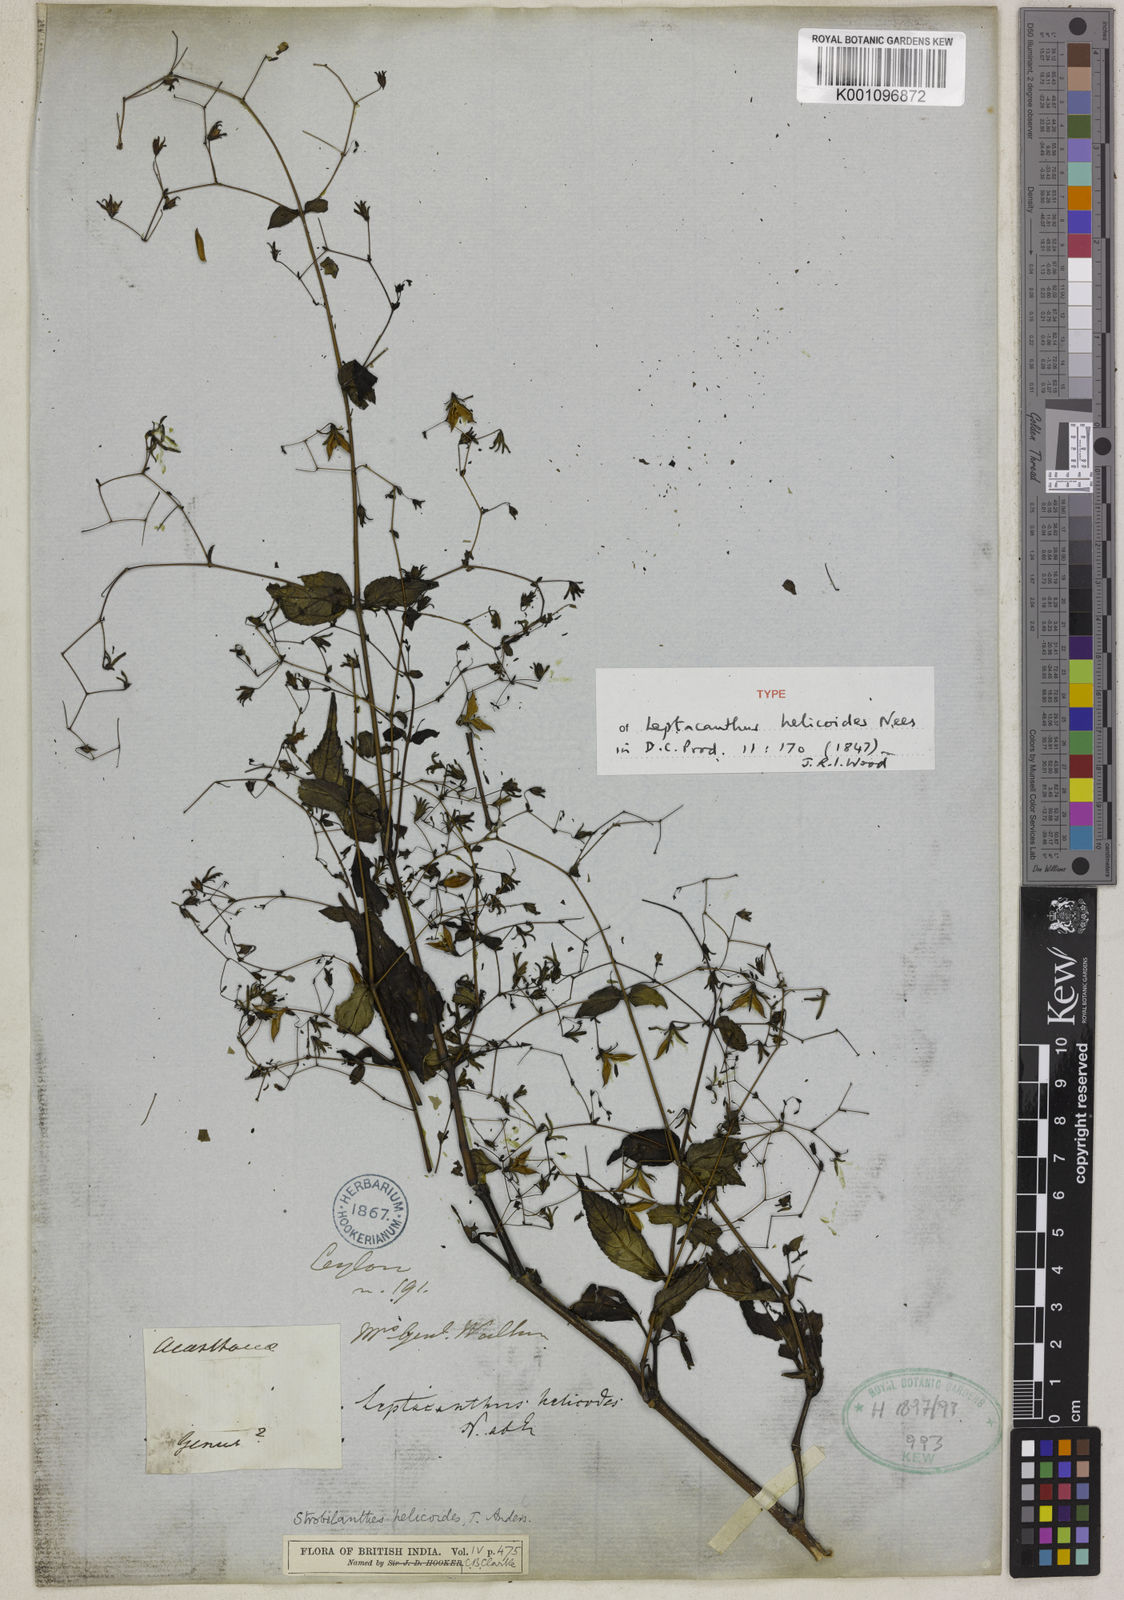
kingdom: Plantae
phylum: Tracheophyta
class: Magnoliopsida
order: Lamiales
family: Acanthaceae
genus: Strobilanthes
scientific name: Strobilanthes helicoides
